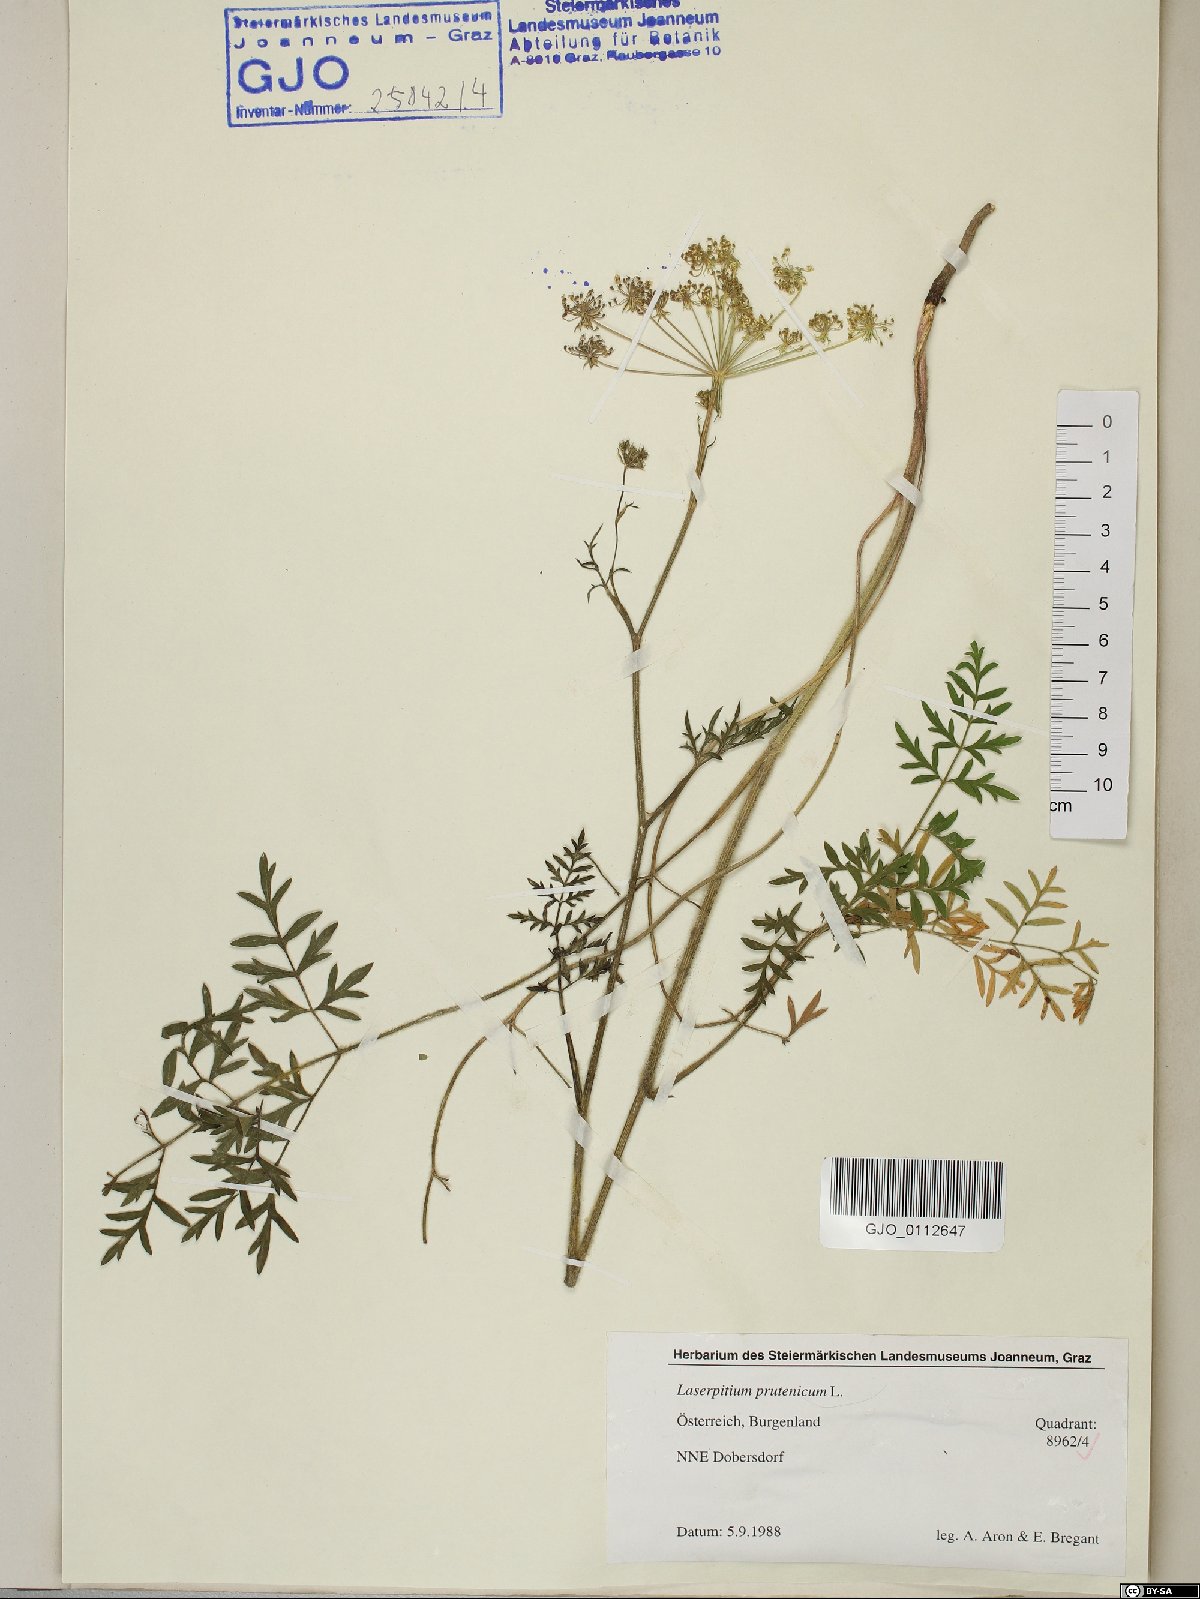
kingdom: Plantae
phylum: Tracheophyta
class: Magnoliopsida
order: Apiales
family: Apiaceae
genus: Silphiodaucus
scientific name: Silphiodaucus prutenicus
